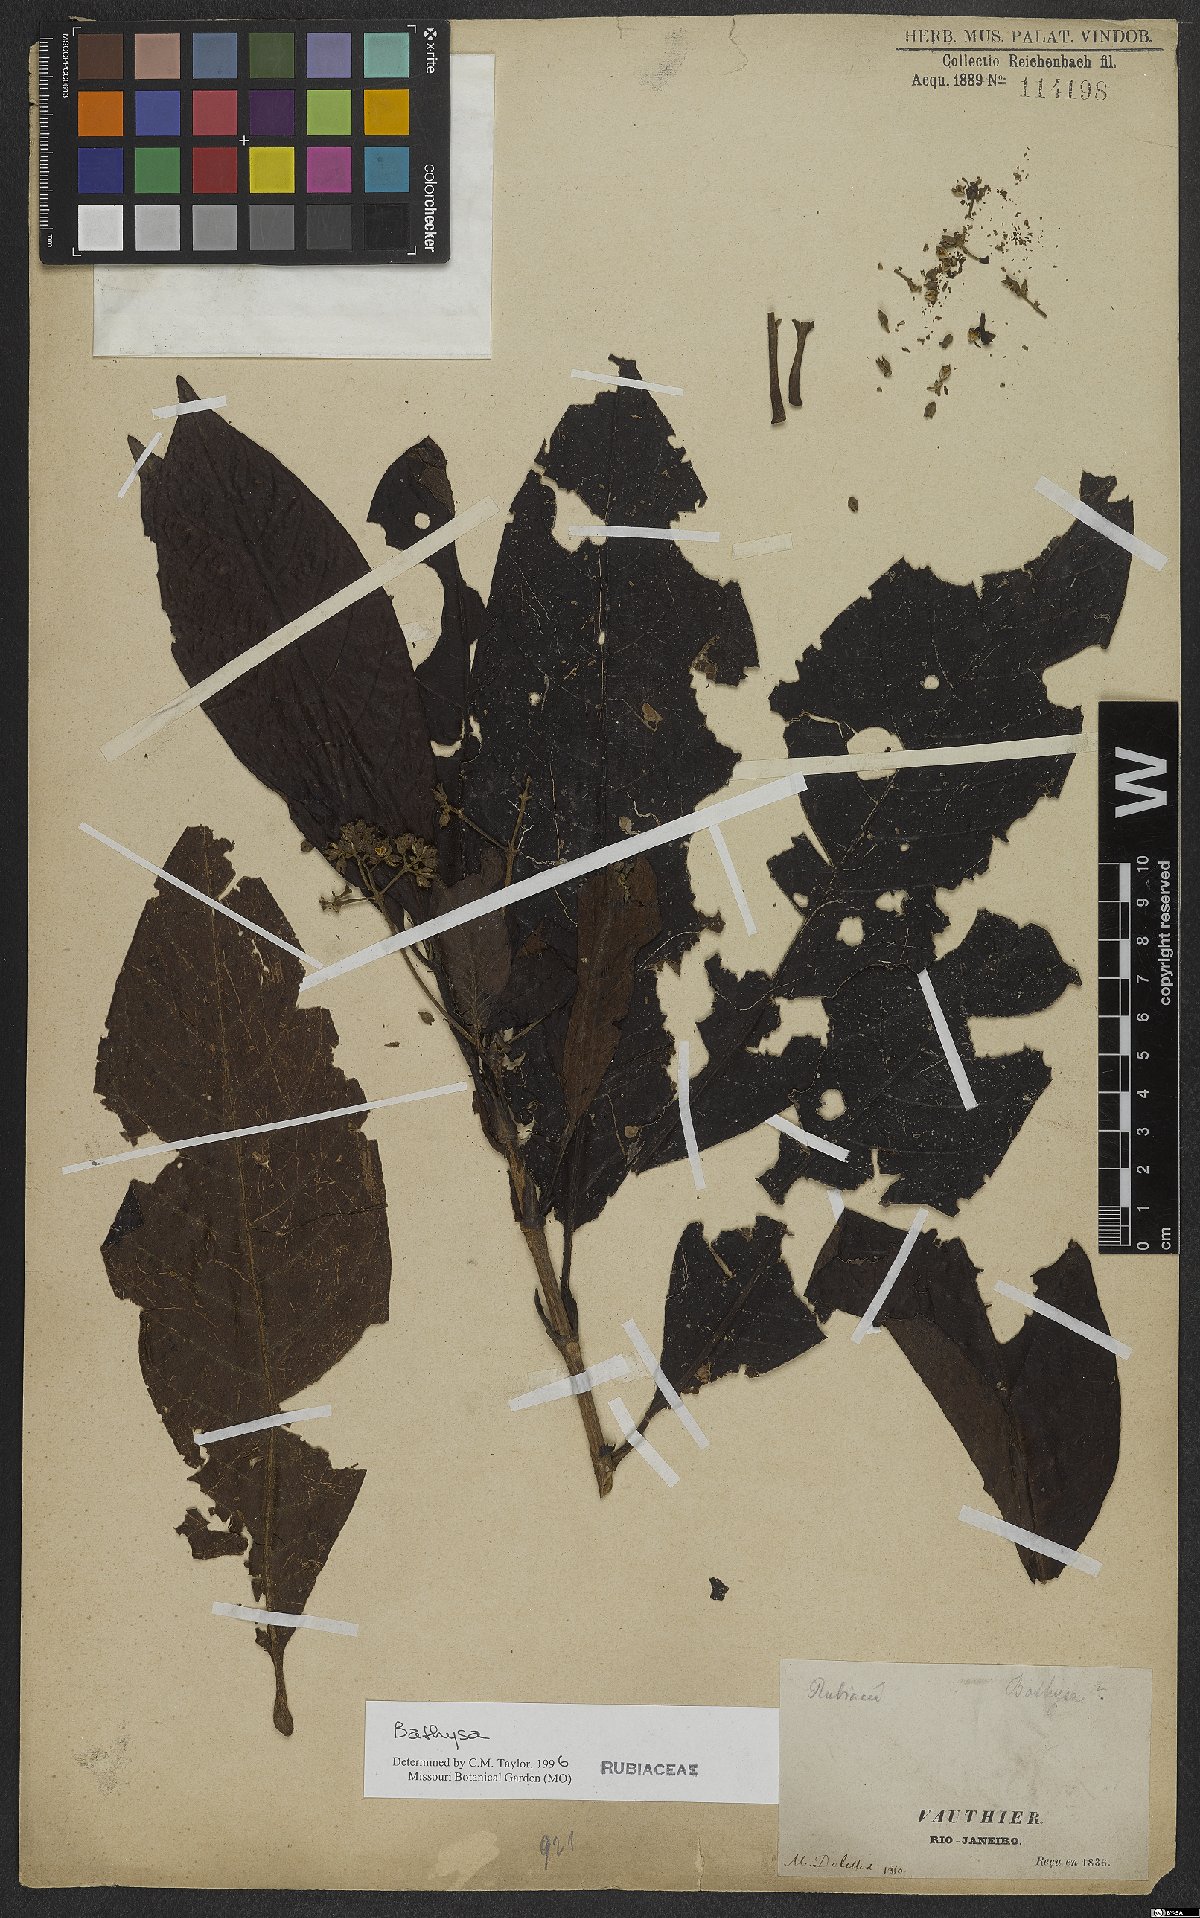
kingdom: Plantae
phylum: Tracheophyta
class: Magnoliopsida
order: Gentianales
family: Rubiaceae
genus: Bathysa
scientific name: Bathysa
